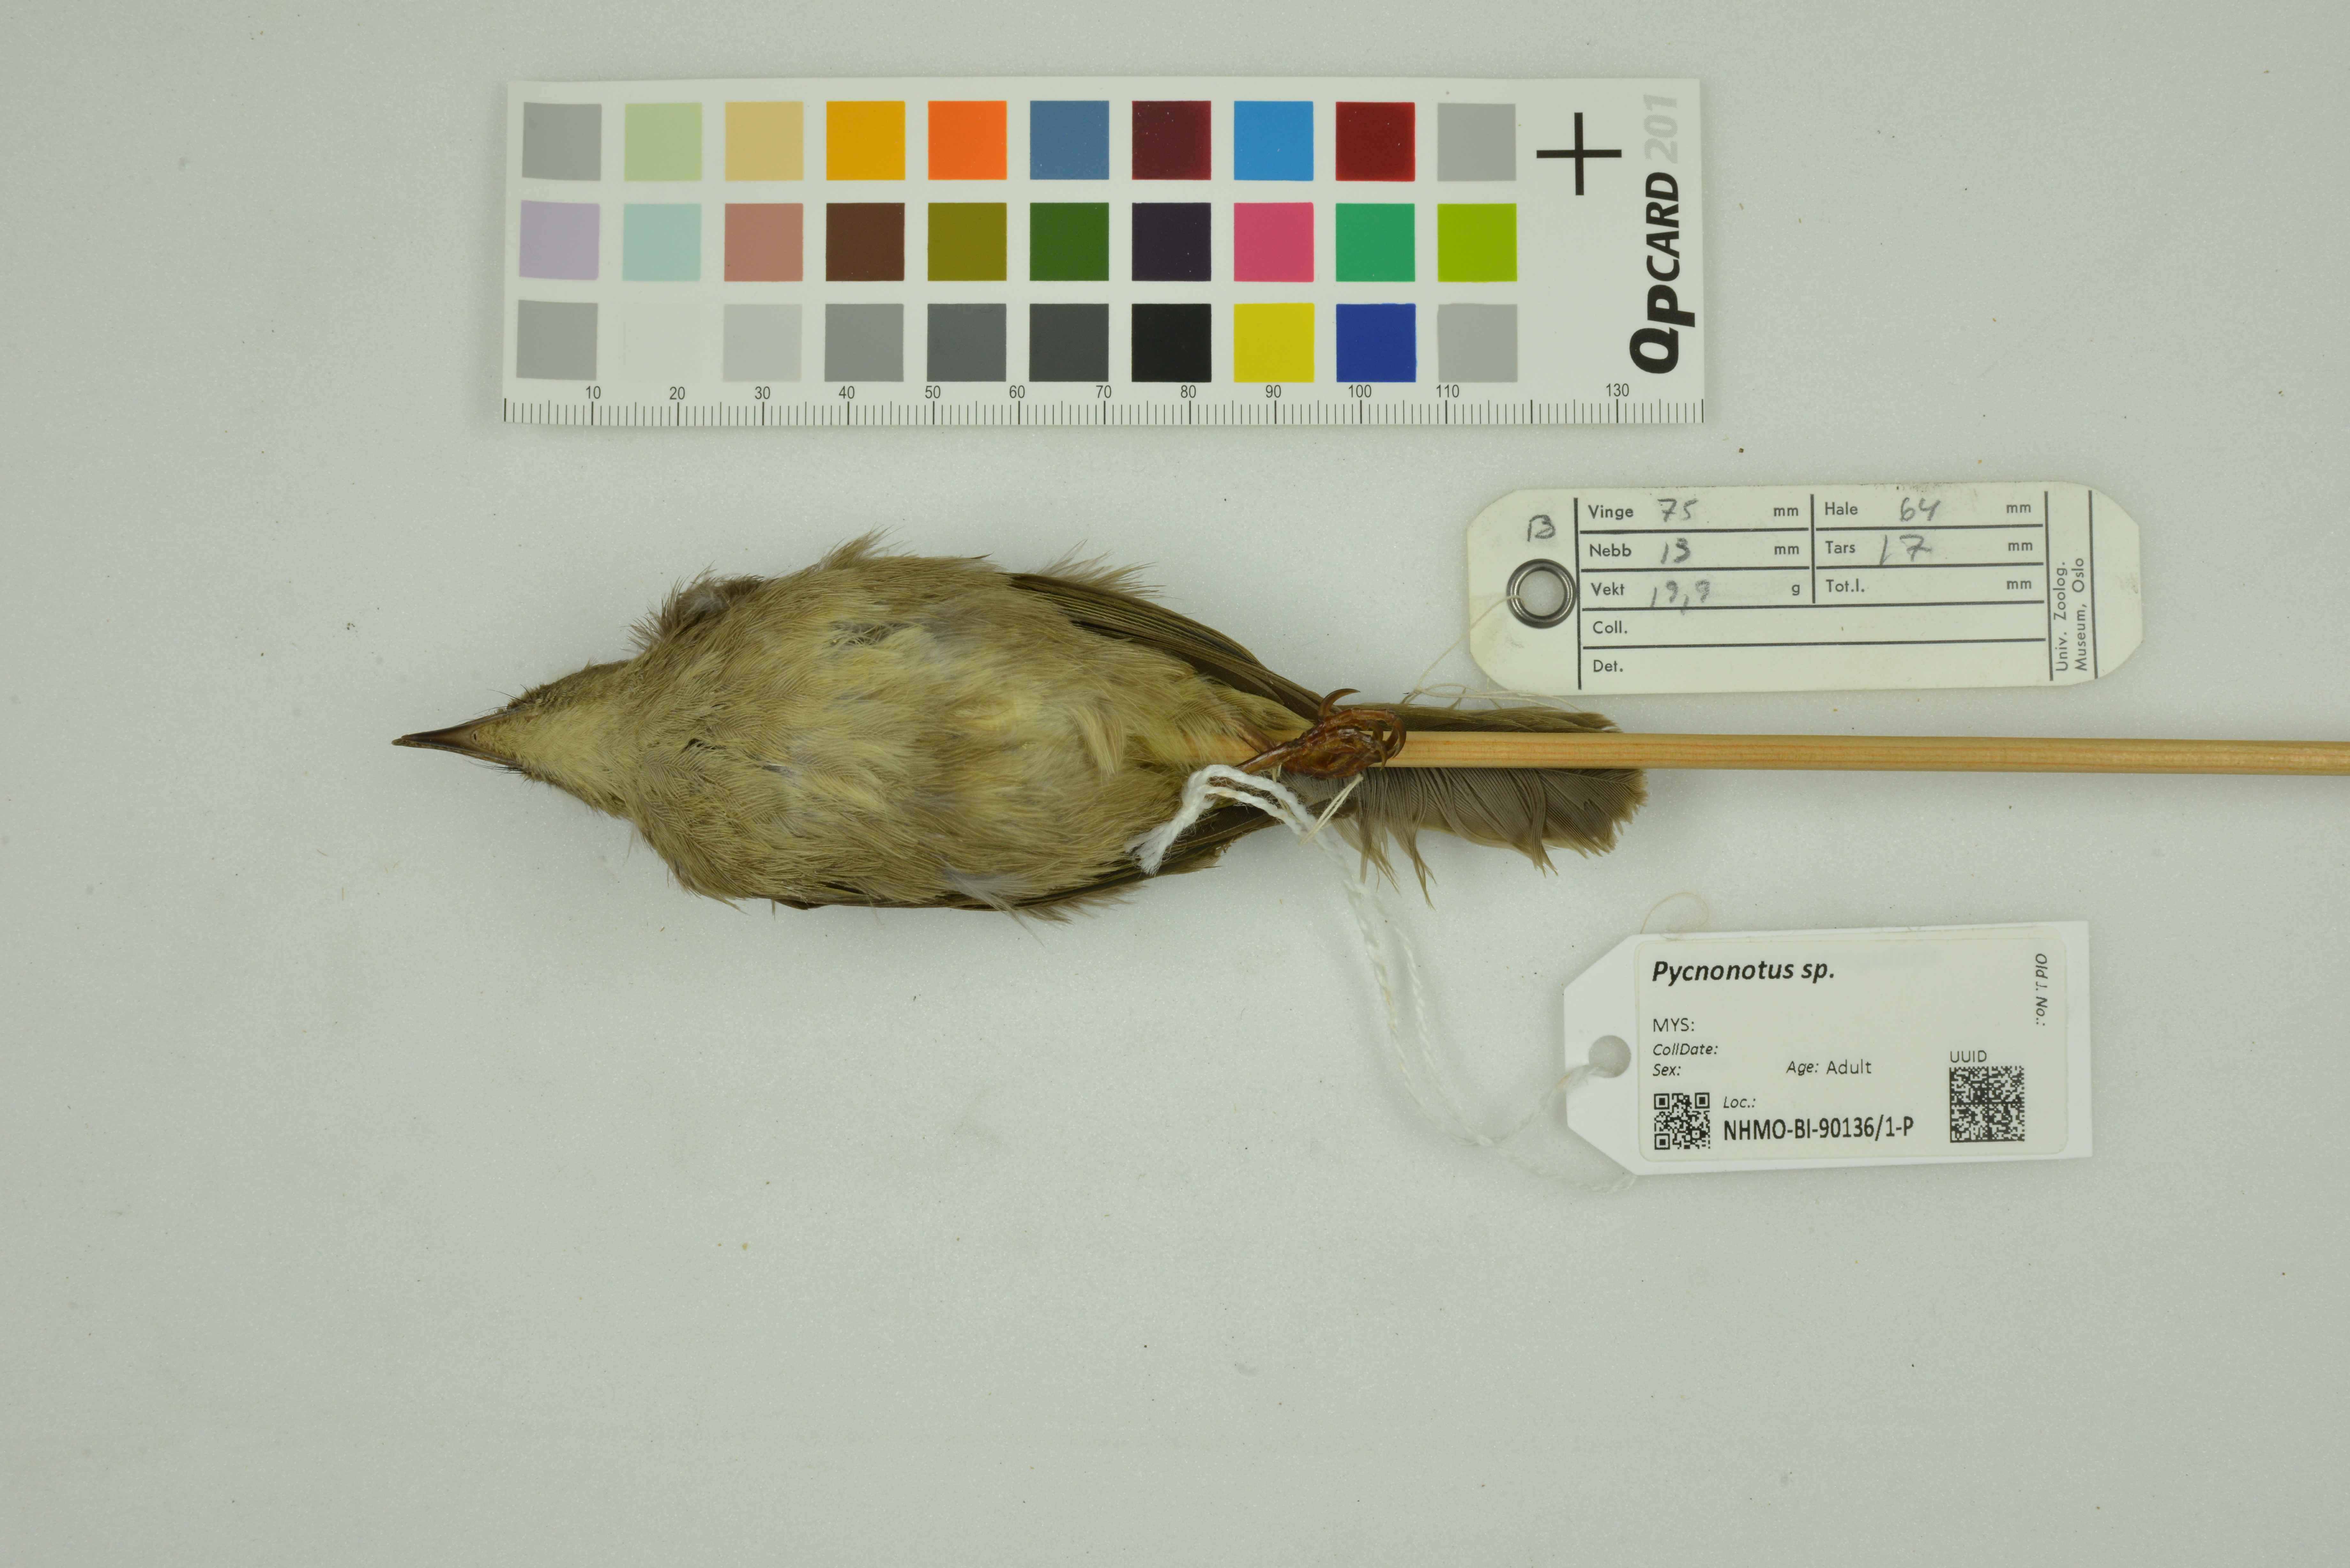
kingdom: Animalia
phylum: Chordata
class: Aves
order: Passeriformes
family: Pycnonotidae
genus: Pycnonotus
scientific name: Pycnonotus
